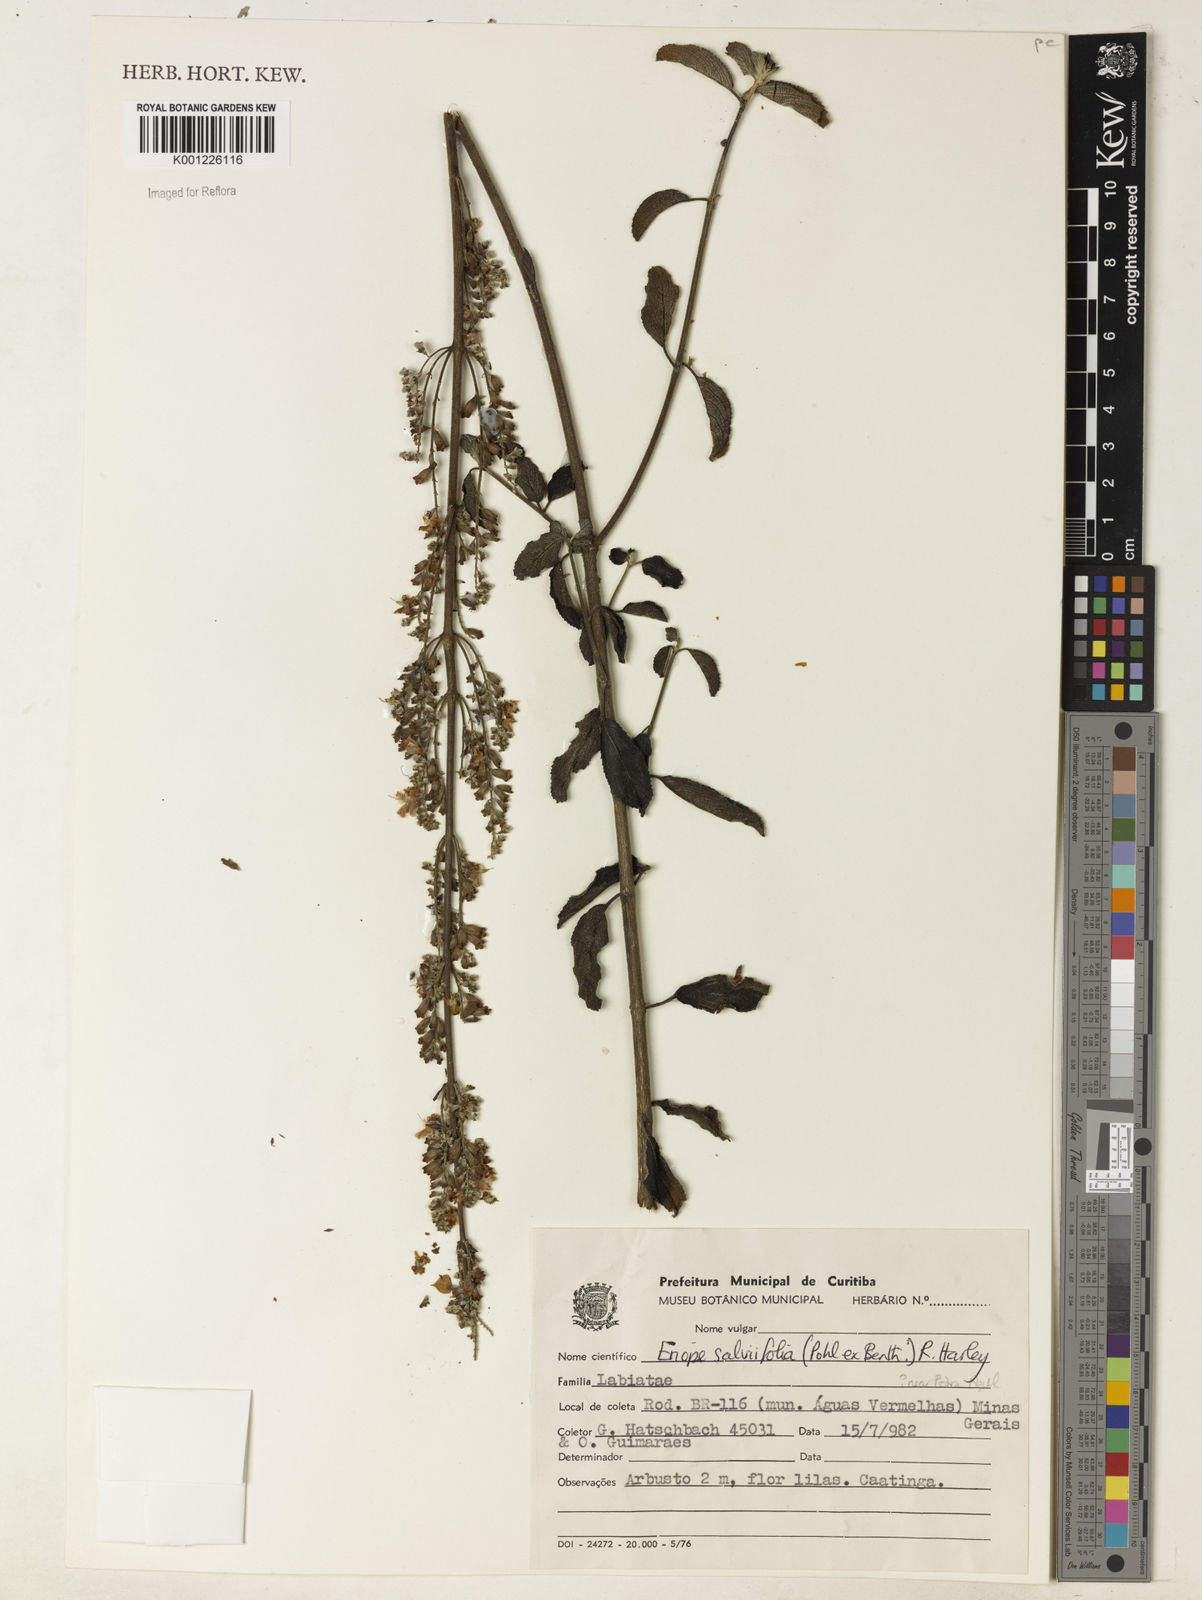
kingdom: Plantae
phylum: Tracheophyta
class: Magnoliopsida
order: Lamiales
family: Lamiaceae
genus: Eriope
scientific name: Eriope salviifolia
